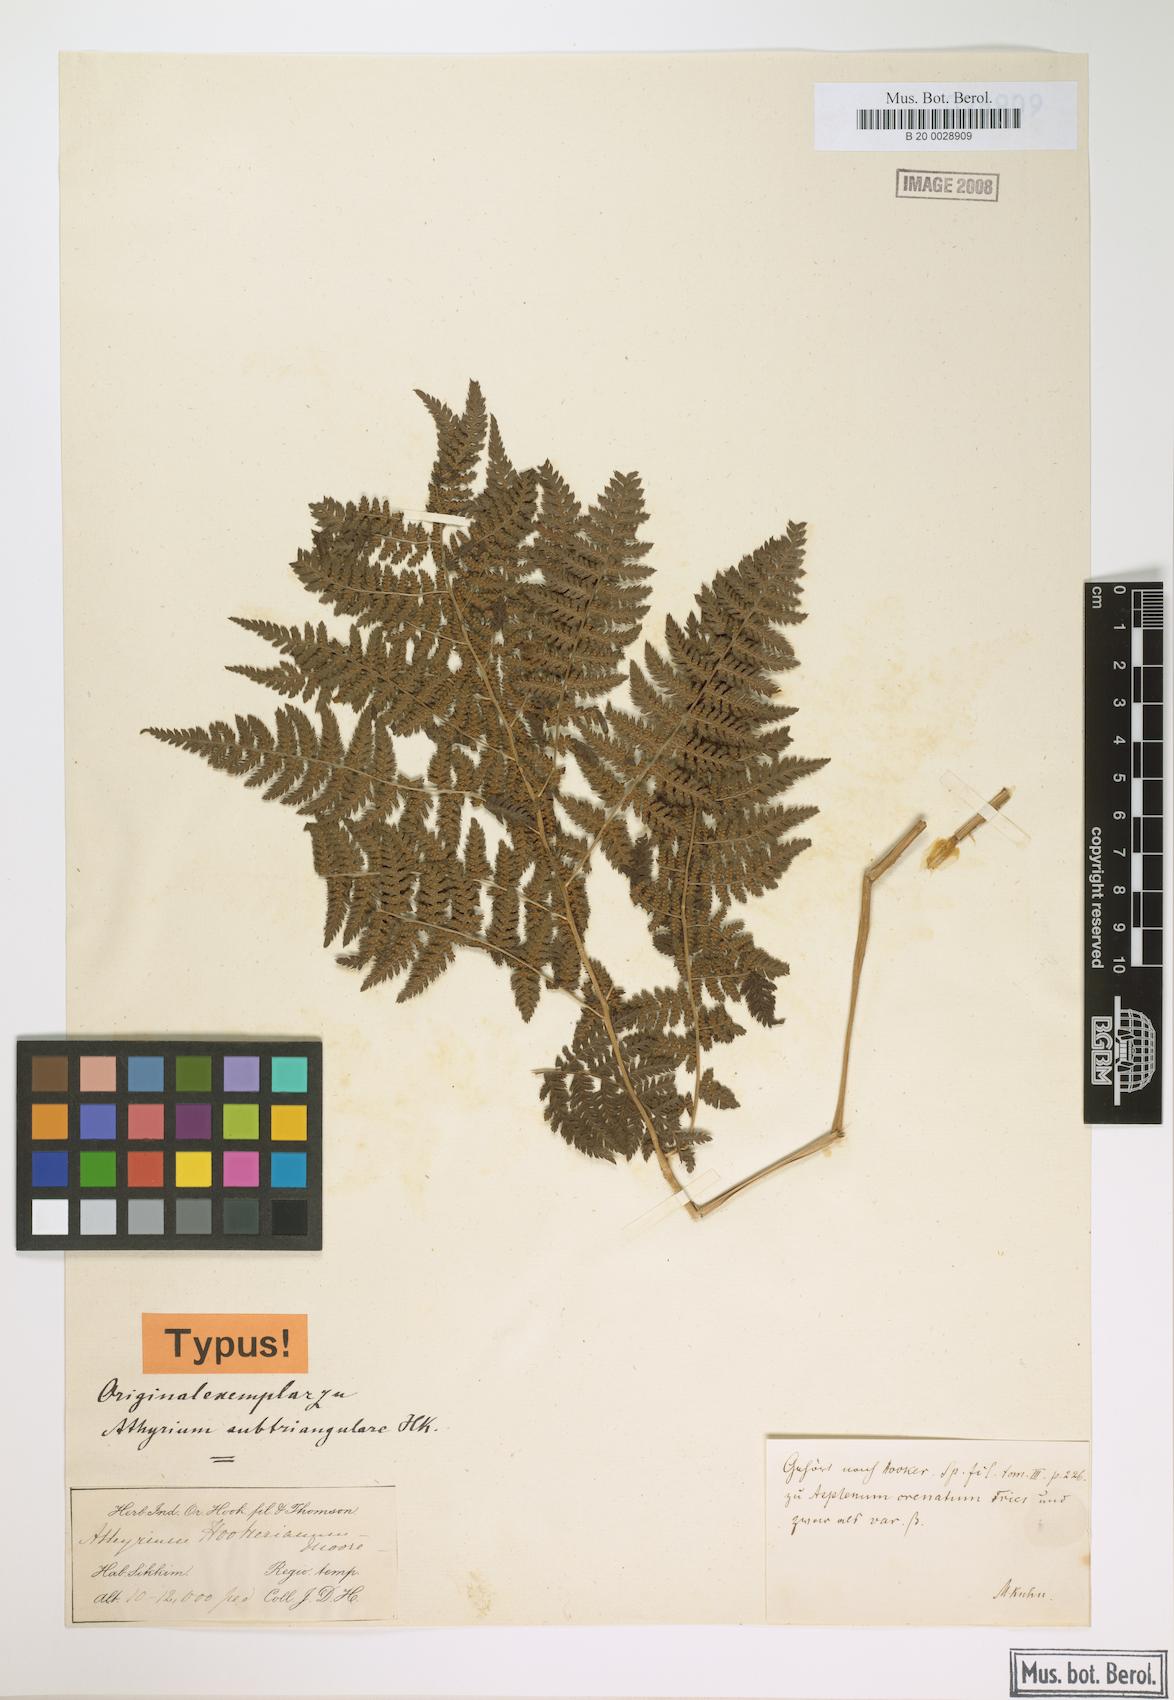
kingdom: Plantae
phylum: Tracheophyta
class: Polypodiopsida
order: Polypodiales
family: Athyriaceae
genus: Athyrium
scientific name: Athyrium spinulosum
